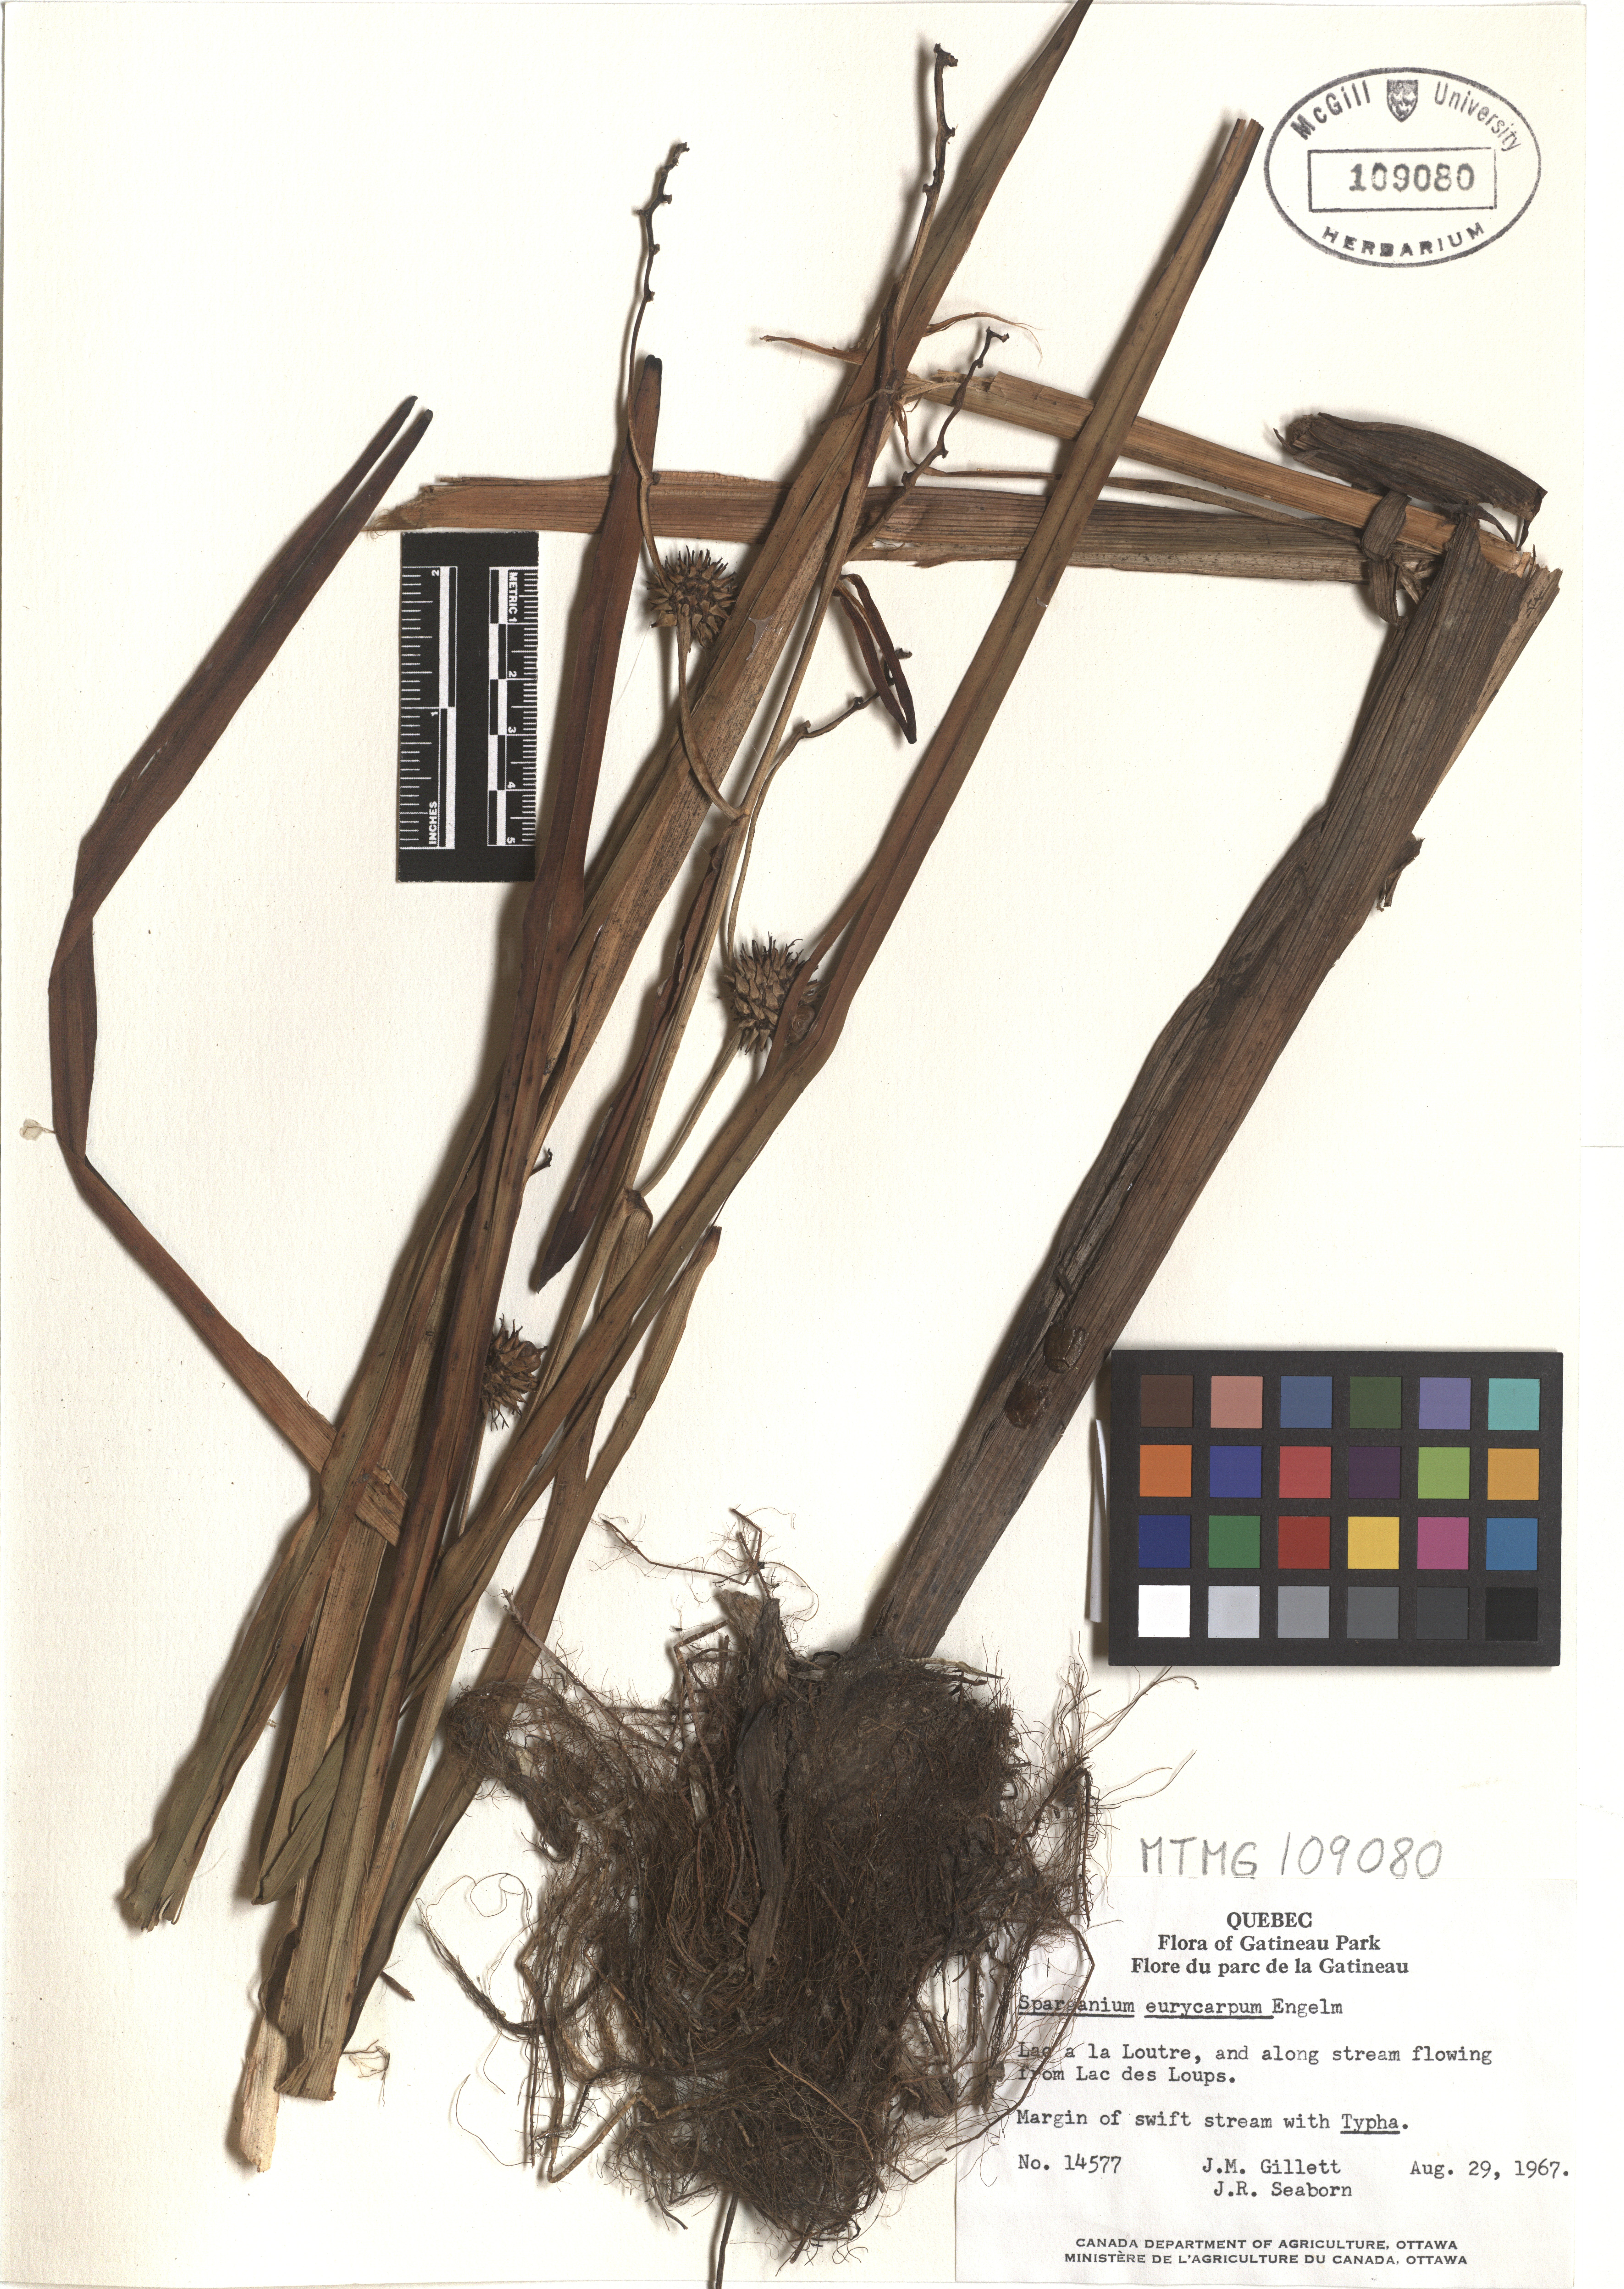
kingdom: Plantae
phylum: Tracheophyta
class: Liliopsida
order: Poales
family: Typhaceae
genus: Sparganium
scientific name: Sparganium eurycarpum
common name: Broad-fruited burreed
